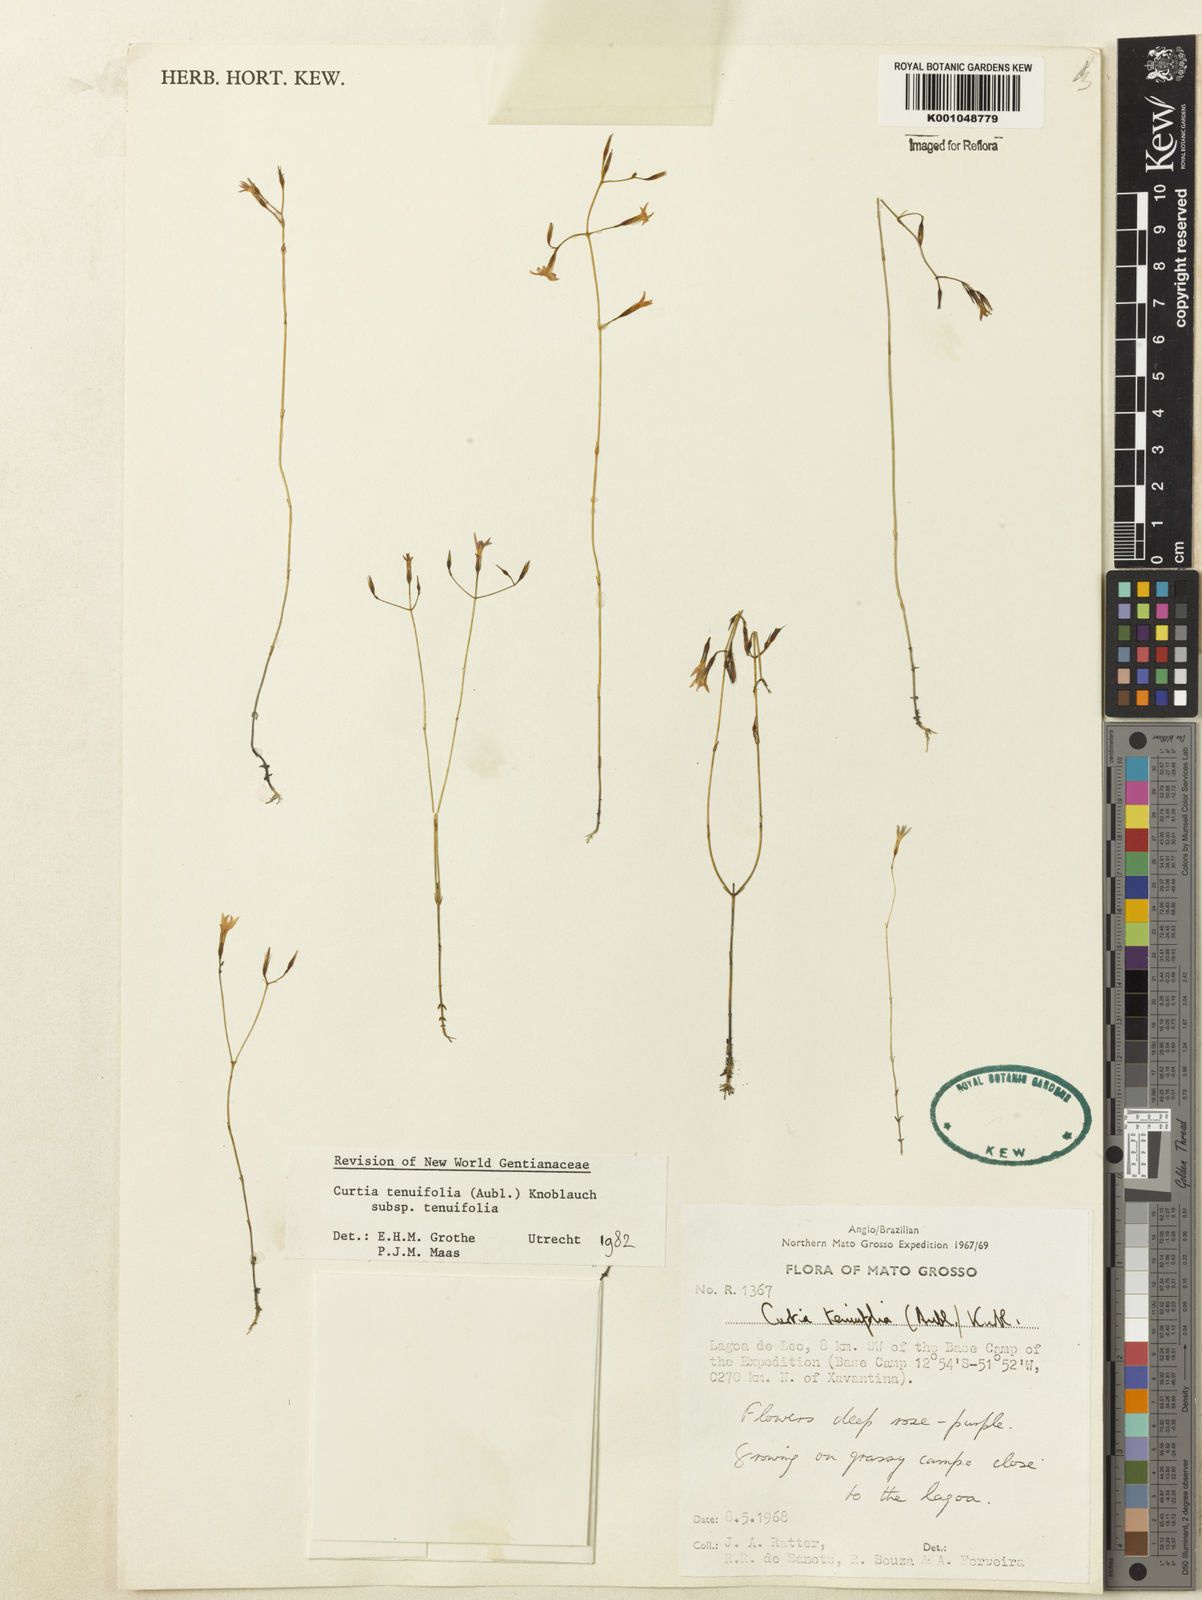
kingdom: Plantae
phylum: Tracheophyta
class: Magnoliopsida
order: Gentianales
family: Gentianaceae
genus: Curtia
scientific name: Curtia tenuifolia
